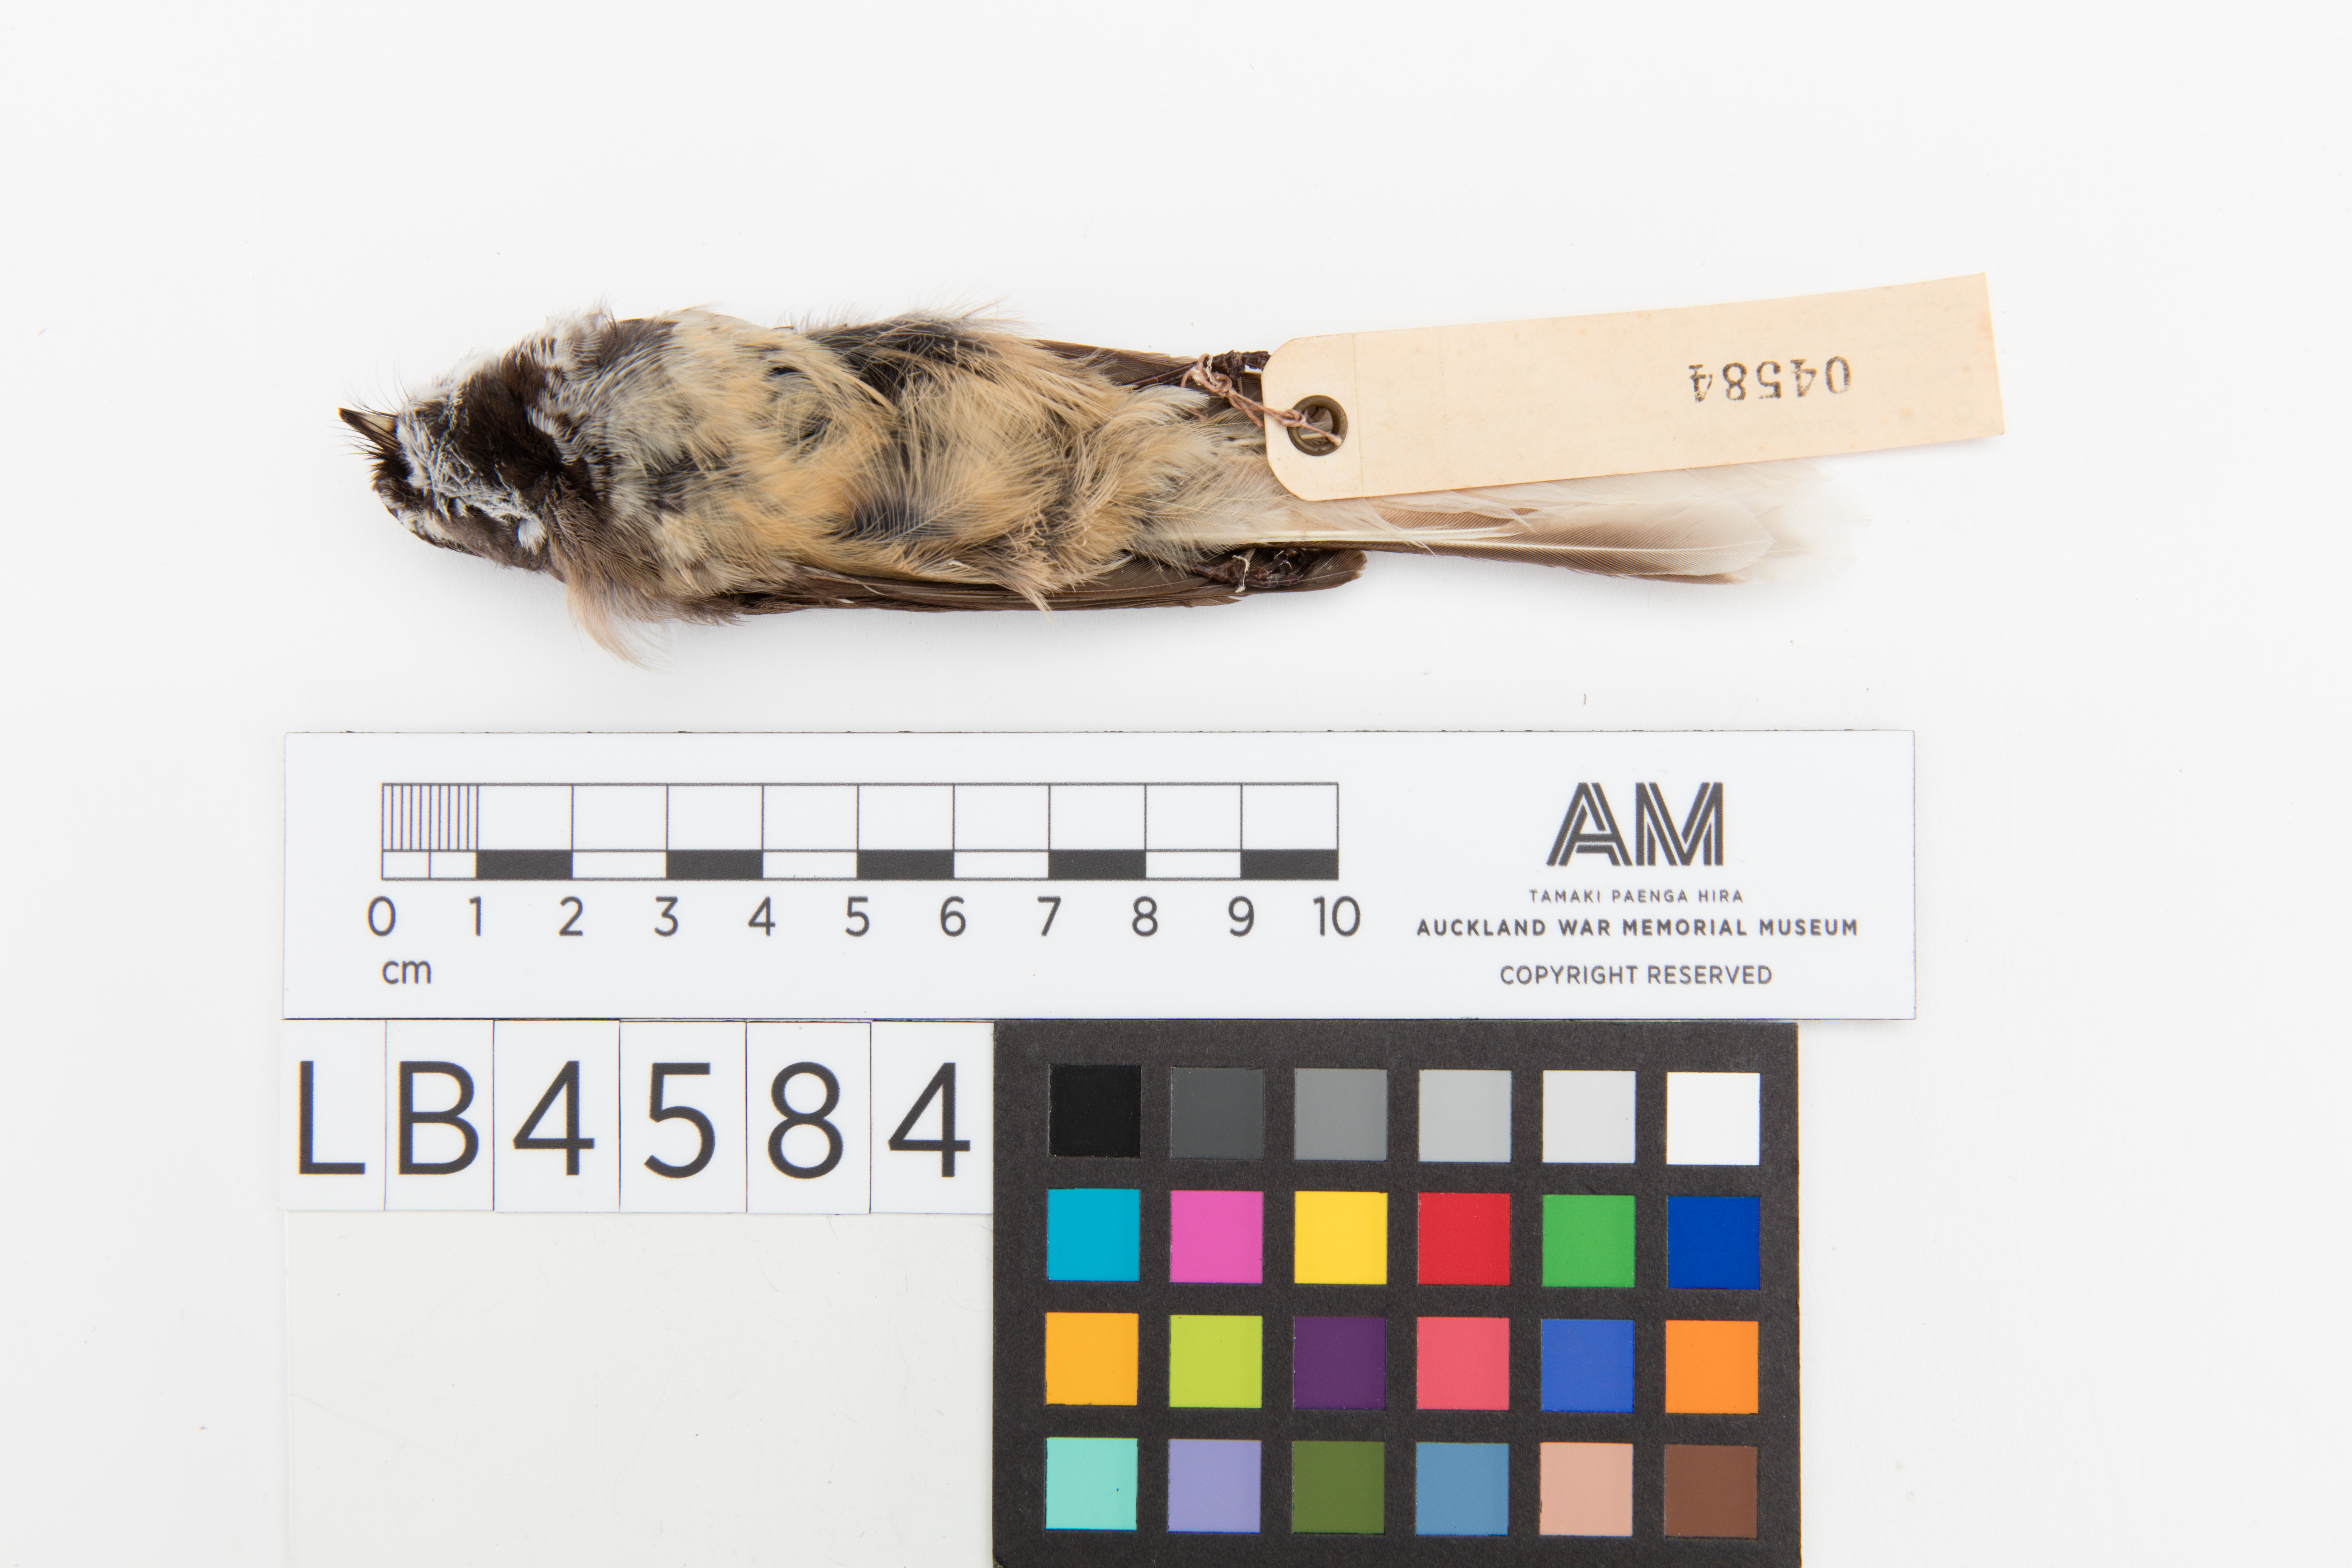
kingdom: Animalia
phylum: Chordata
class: Aves
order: Passeriformes
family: Rhipiduridae
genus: Rhipidura
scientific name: Rhipidura fuliginosa
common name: New zealand fantail
